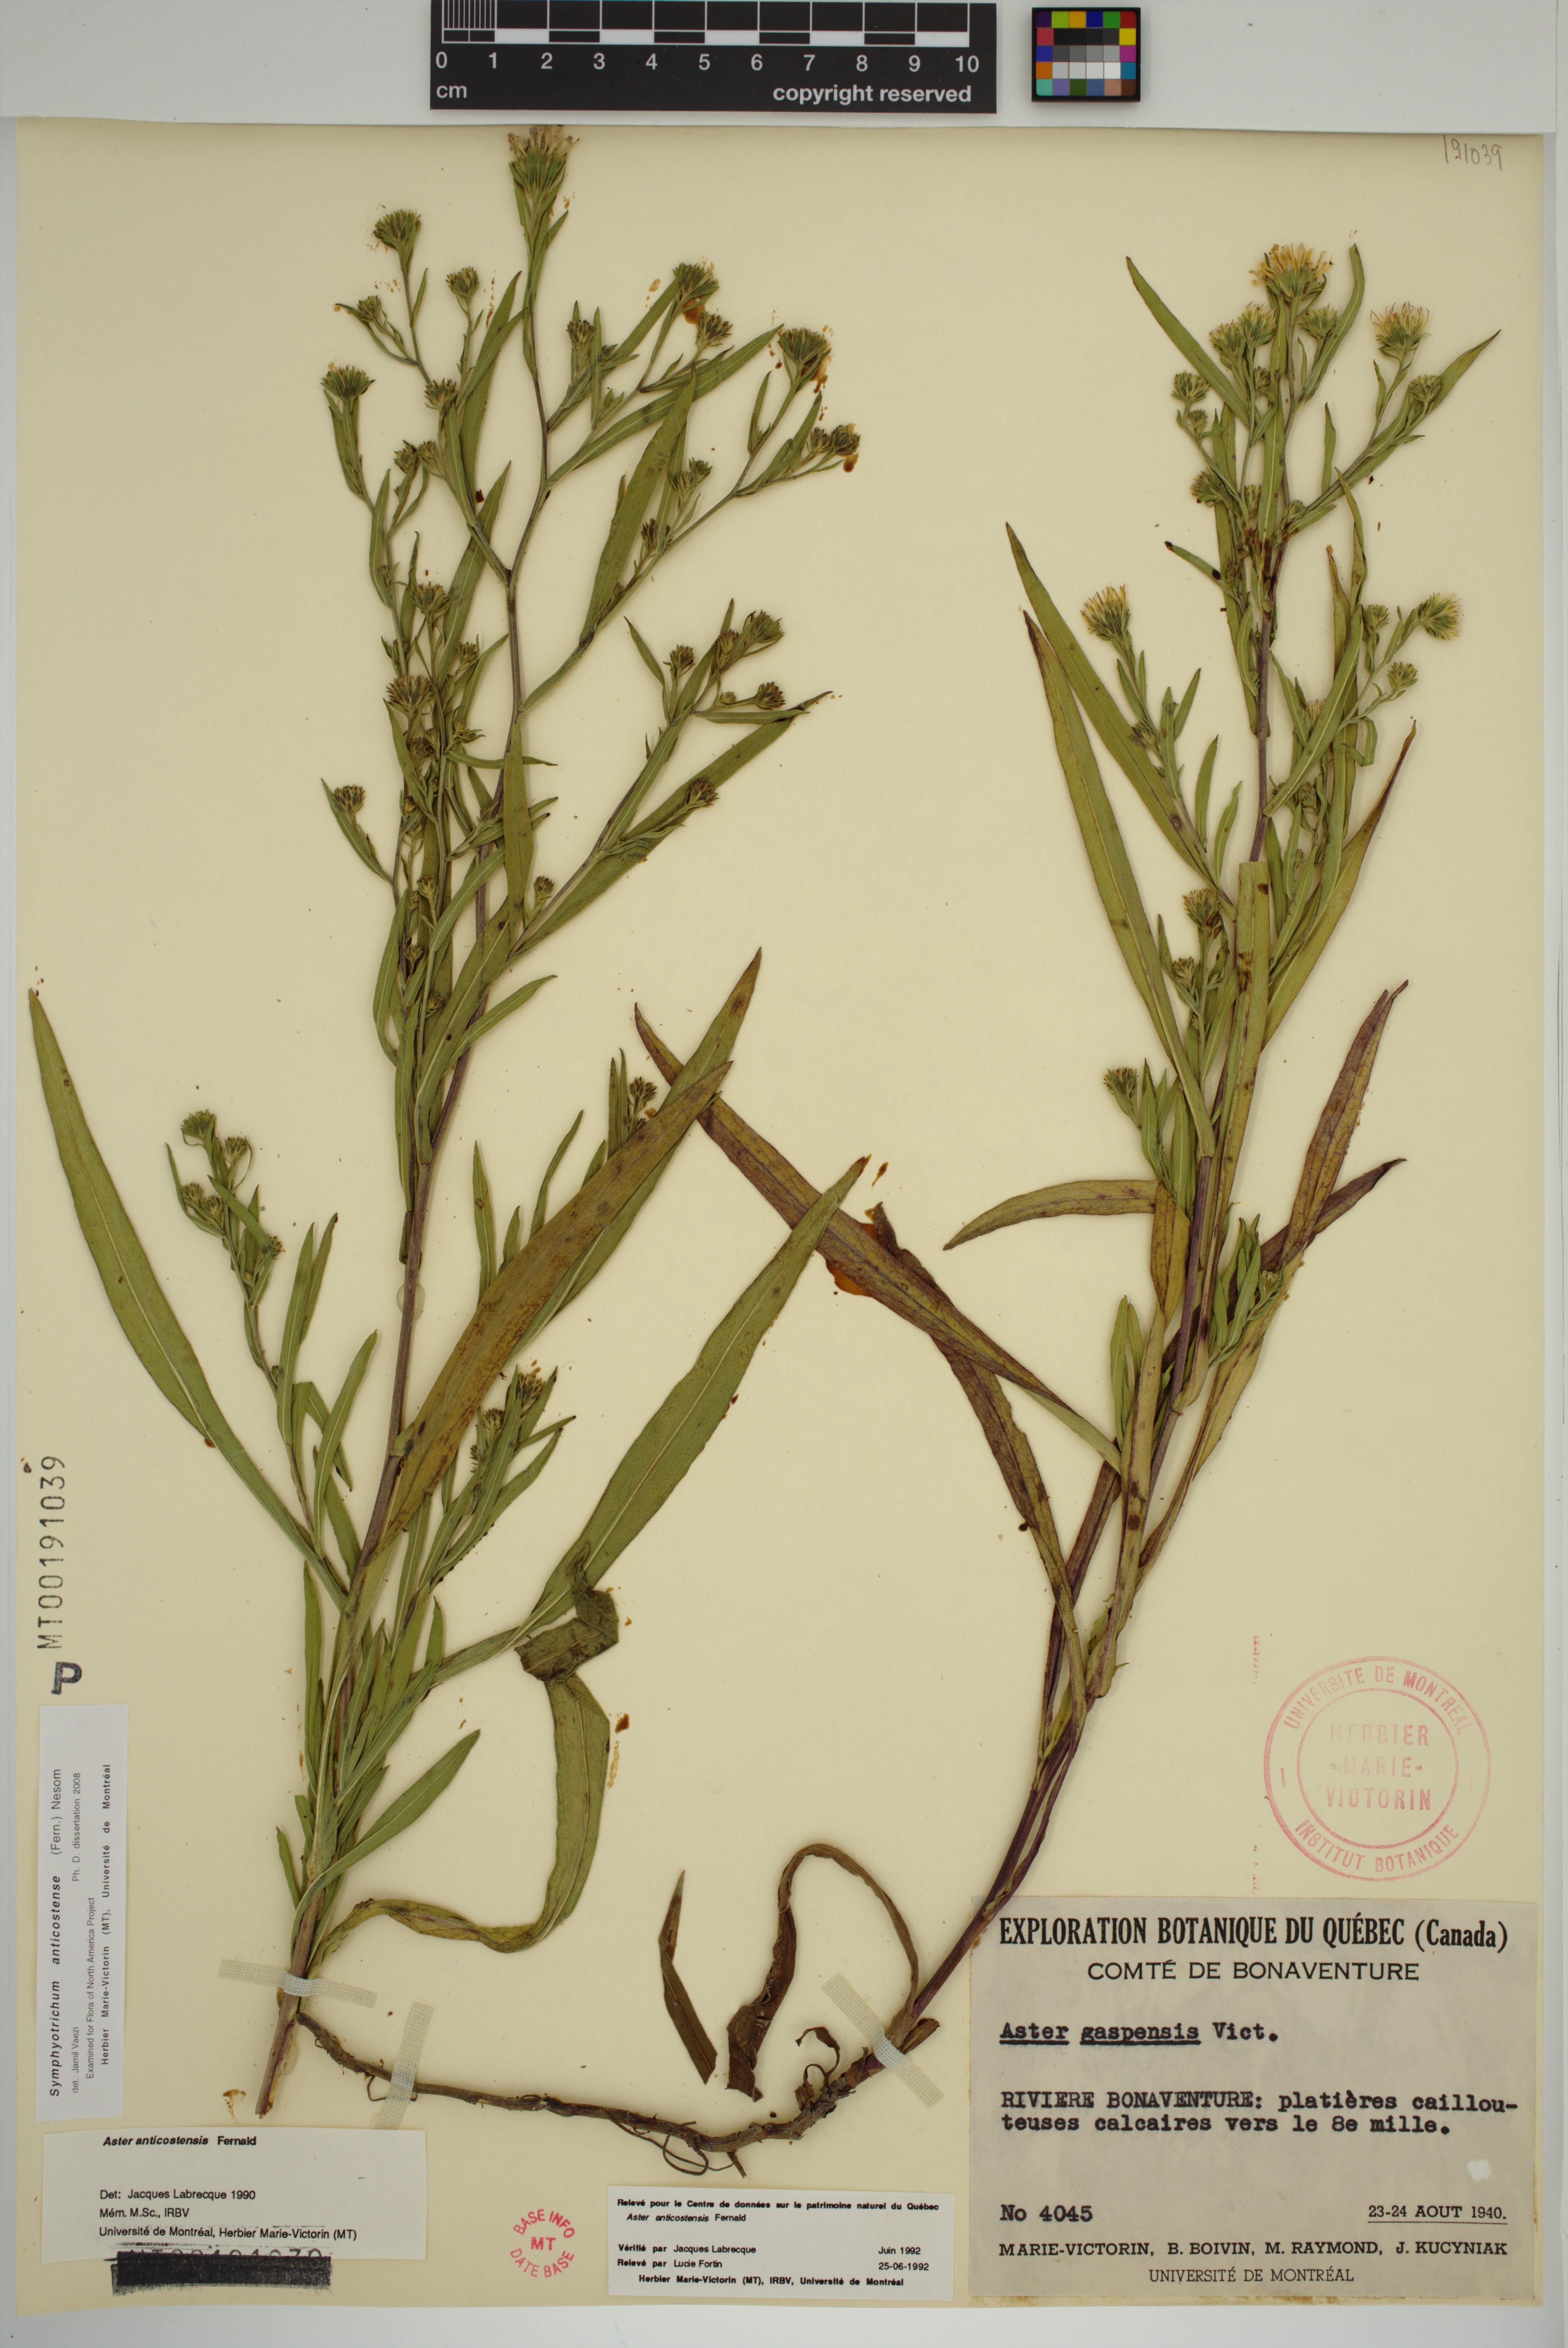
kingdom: Plantae
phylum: Tracheophyta
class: Magnoliopsida
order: Asterales
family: Asteraceae
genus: Symphyotrichum
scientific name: Symphyotrichum anticostense
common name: Anticosti island aster
